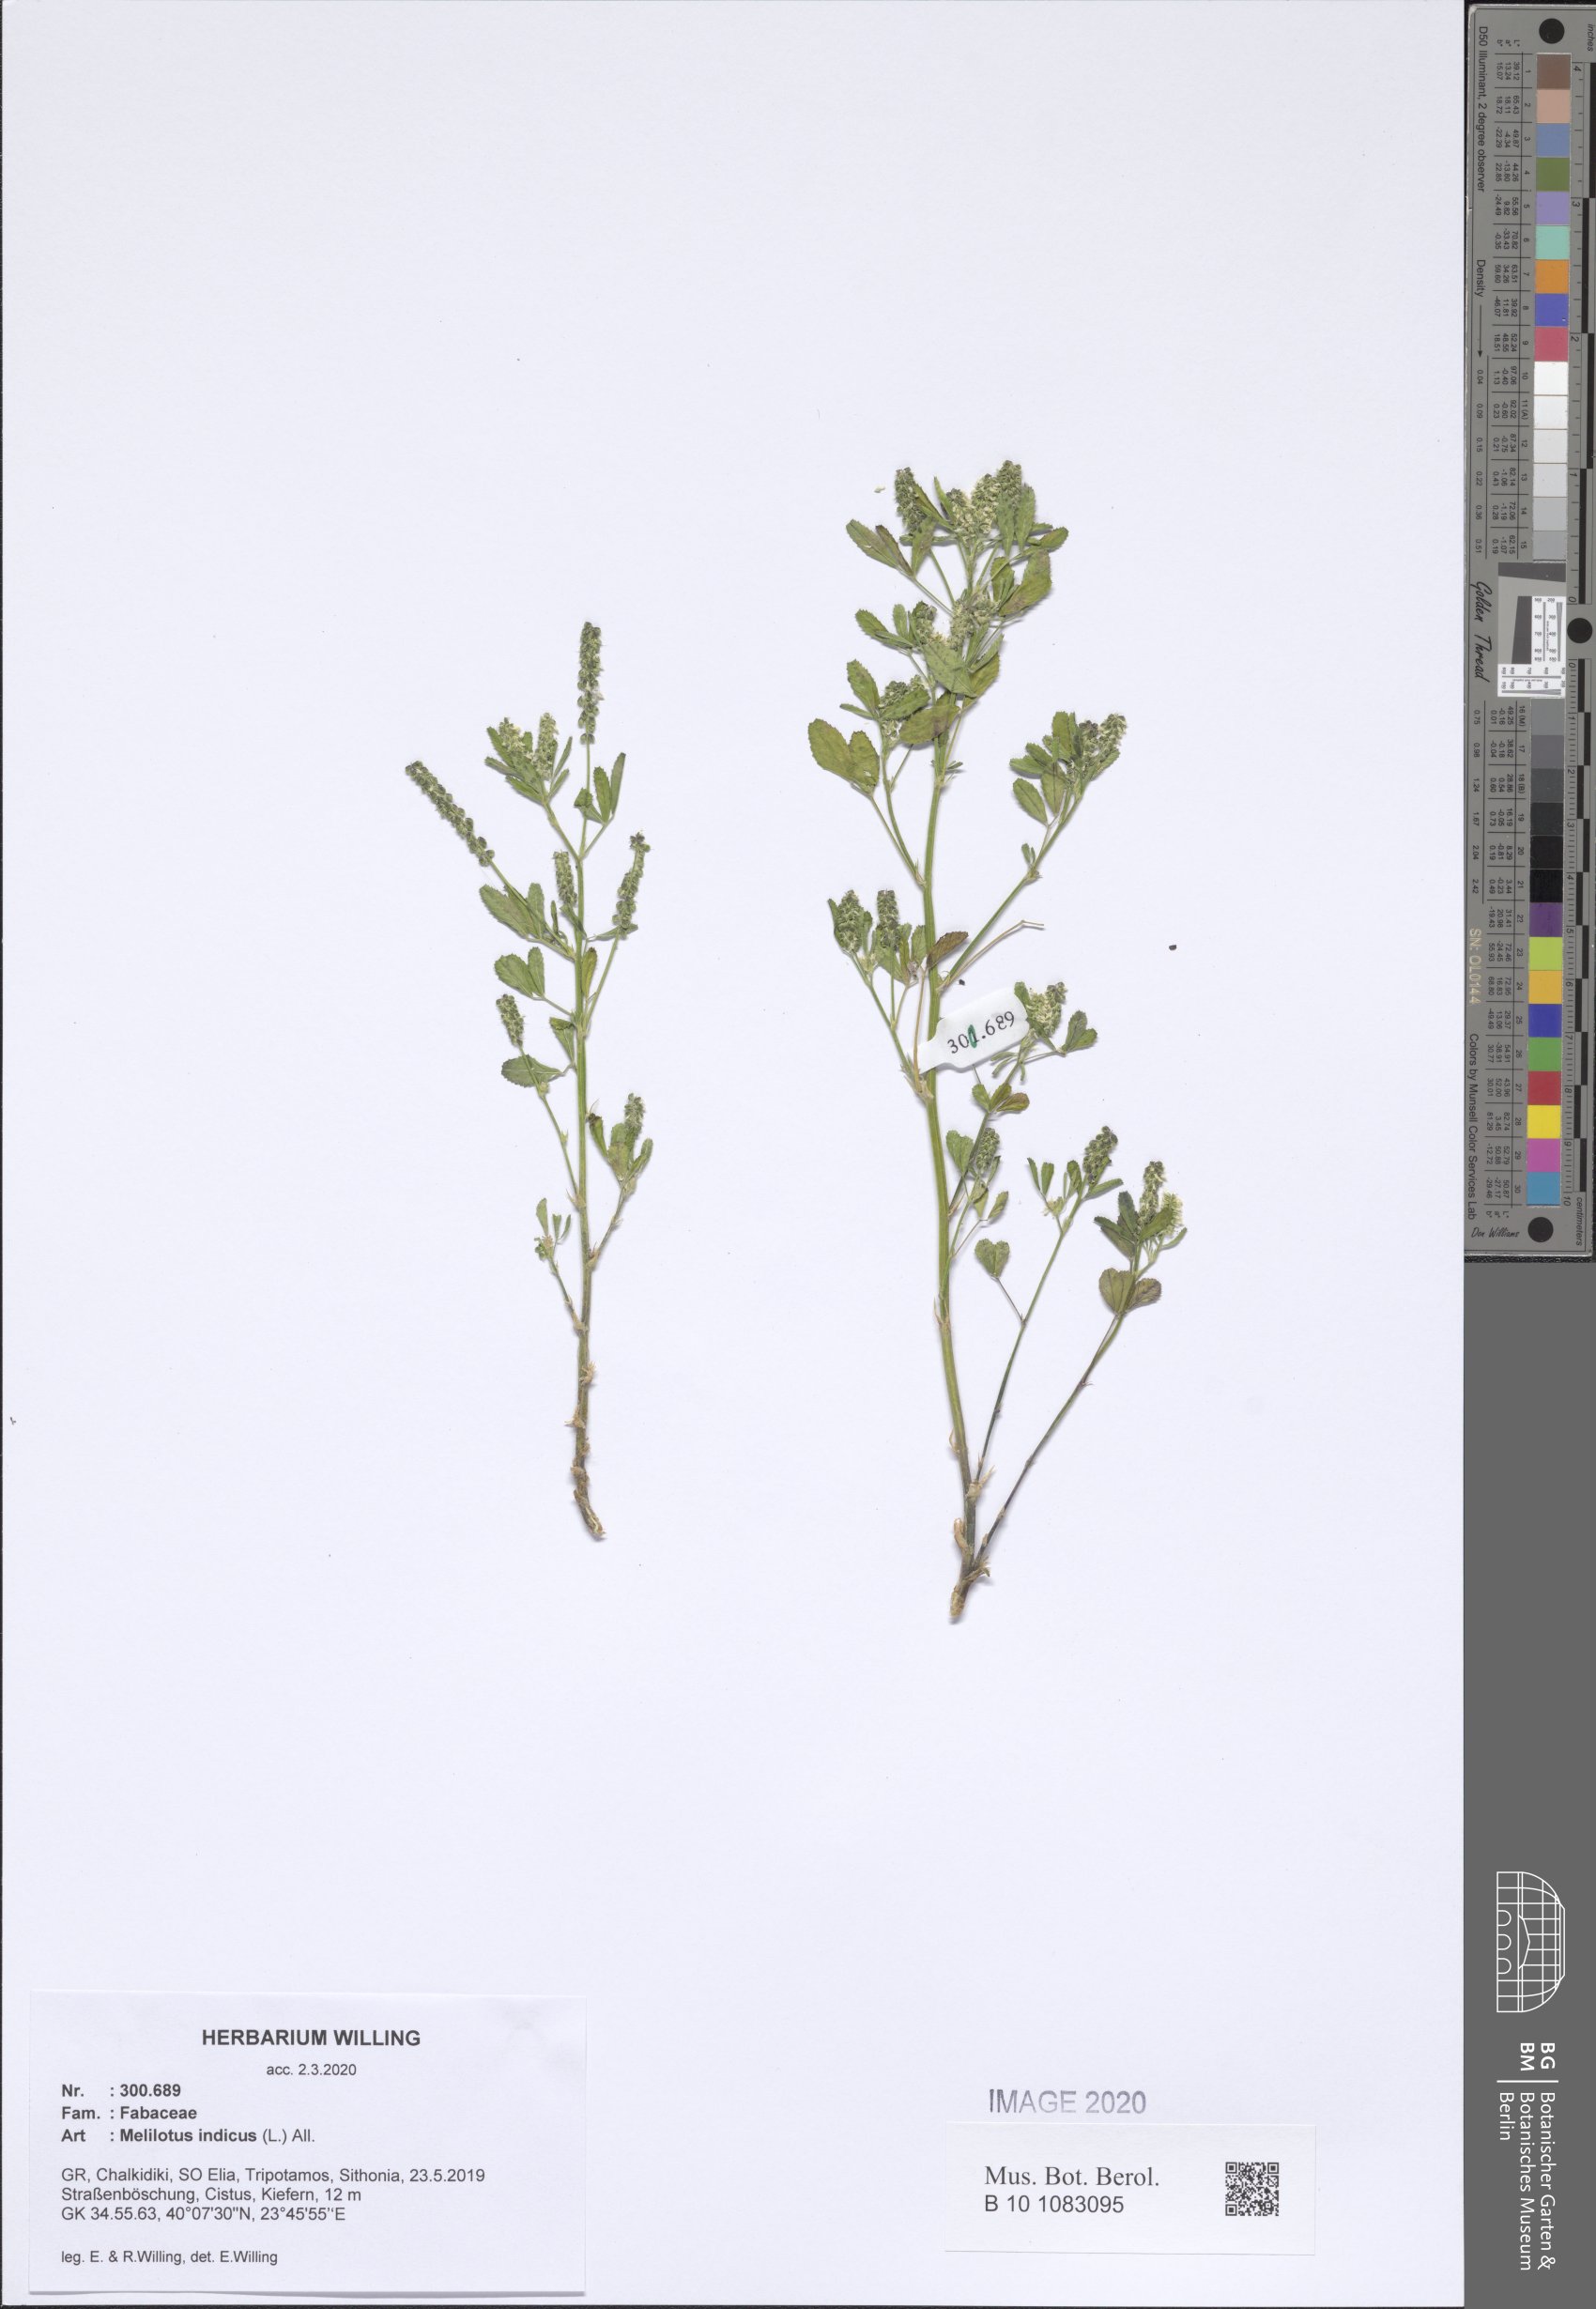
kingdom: Plantae
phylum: Tracheophyta
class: Magnoliopsida
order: Fabales
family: Fabaceae
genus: Melilotus
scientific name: Melilotus indicus
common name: Small melilot
